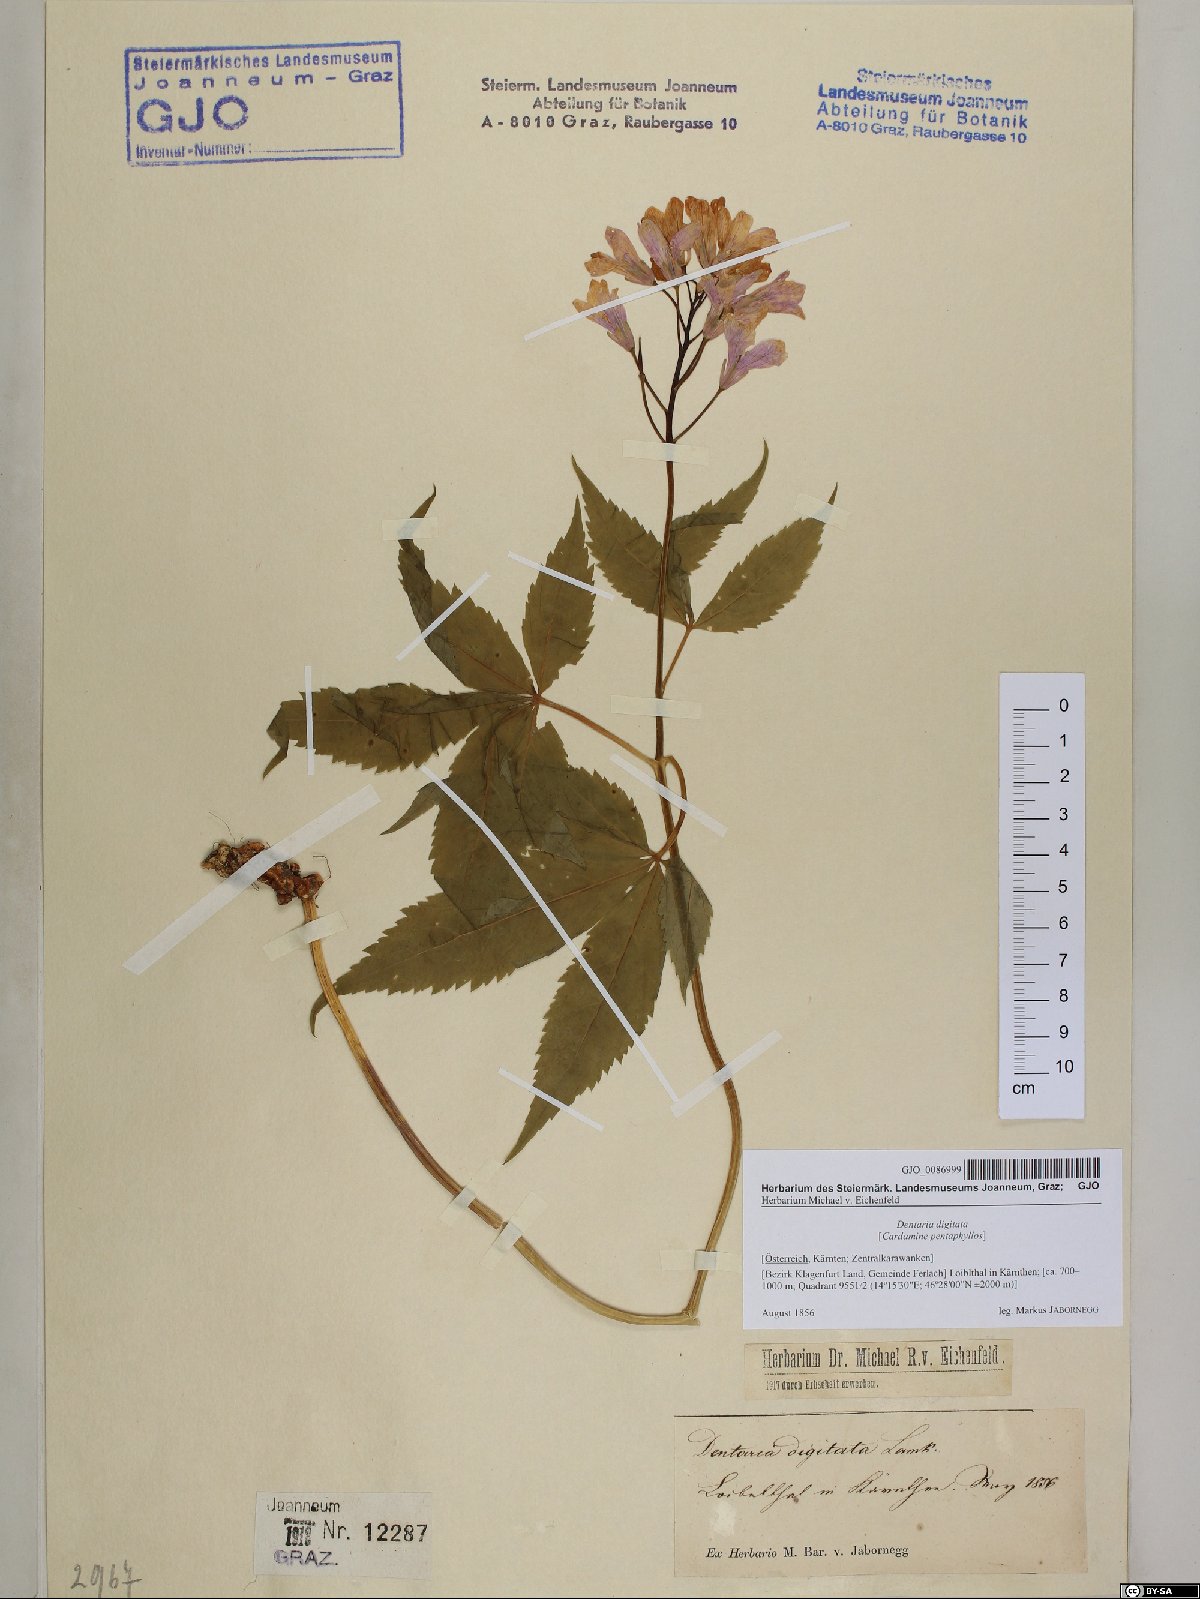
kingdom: Plantae
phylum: Tracheophyta
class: Magnoliopsida
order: Brassicales
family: Brassicaceae
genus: Cardamine
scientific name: Cardamine pentaphyllos
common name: Five-leaflet bitter-cress
